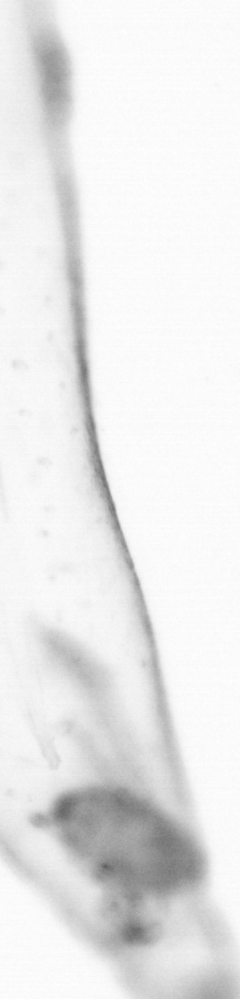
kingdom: Animalia
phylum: Chaetognatha
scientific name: Chaetognatha
